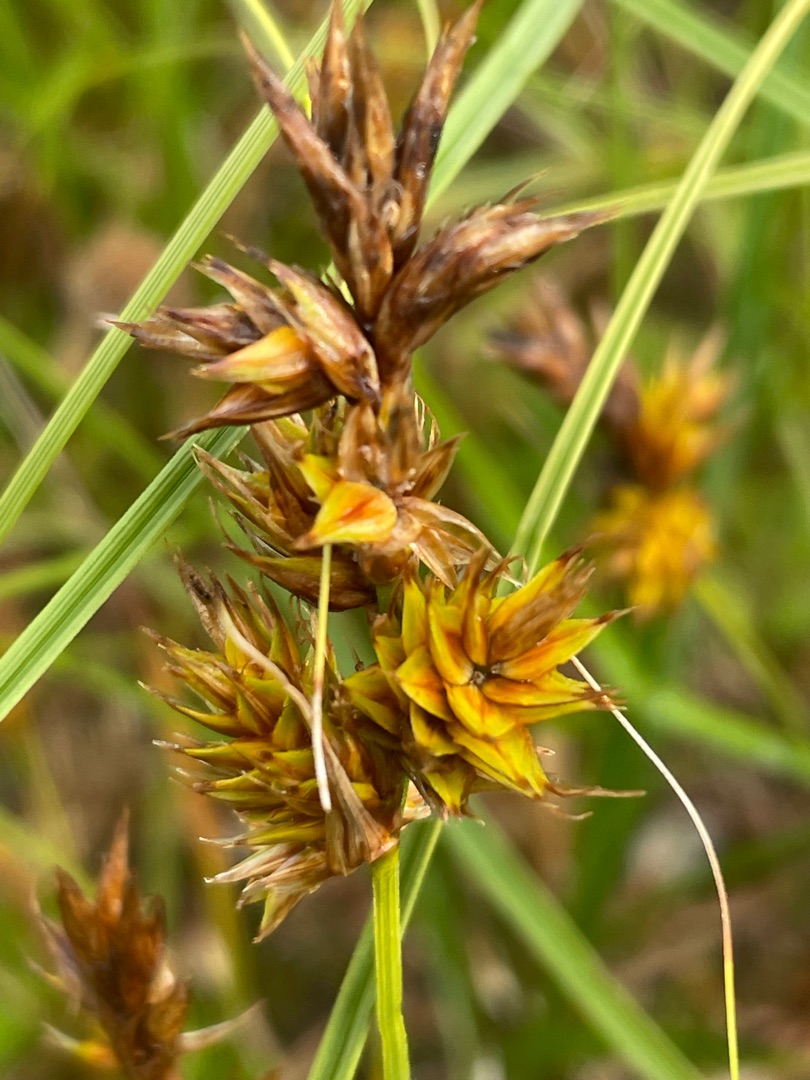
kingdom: Plantae
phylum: Tracheophyta
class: Liliopsida
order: Poales
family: Cyperaceae
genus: Carex
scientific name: Carex arenaria
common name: Sand-star
